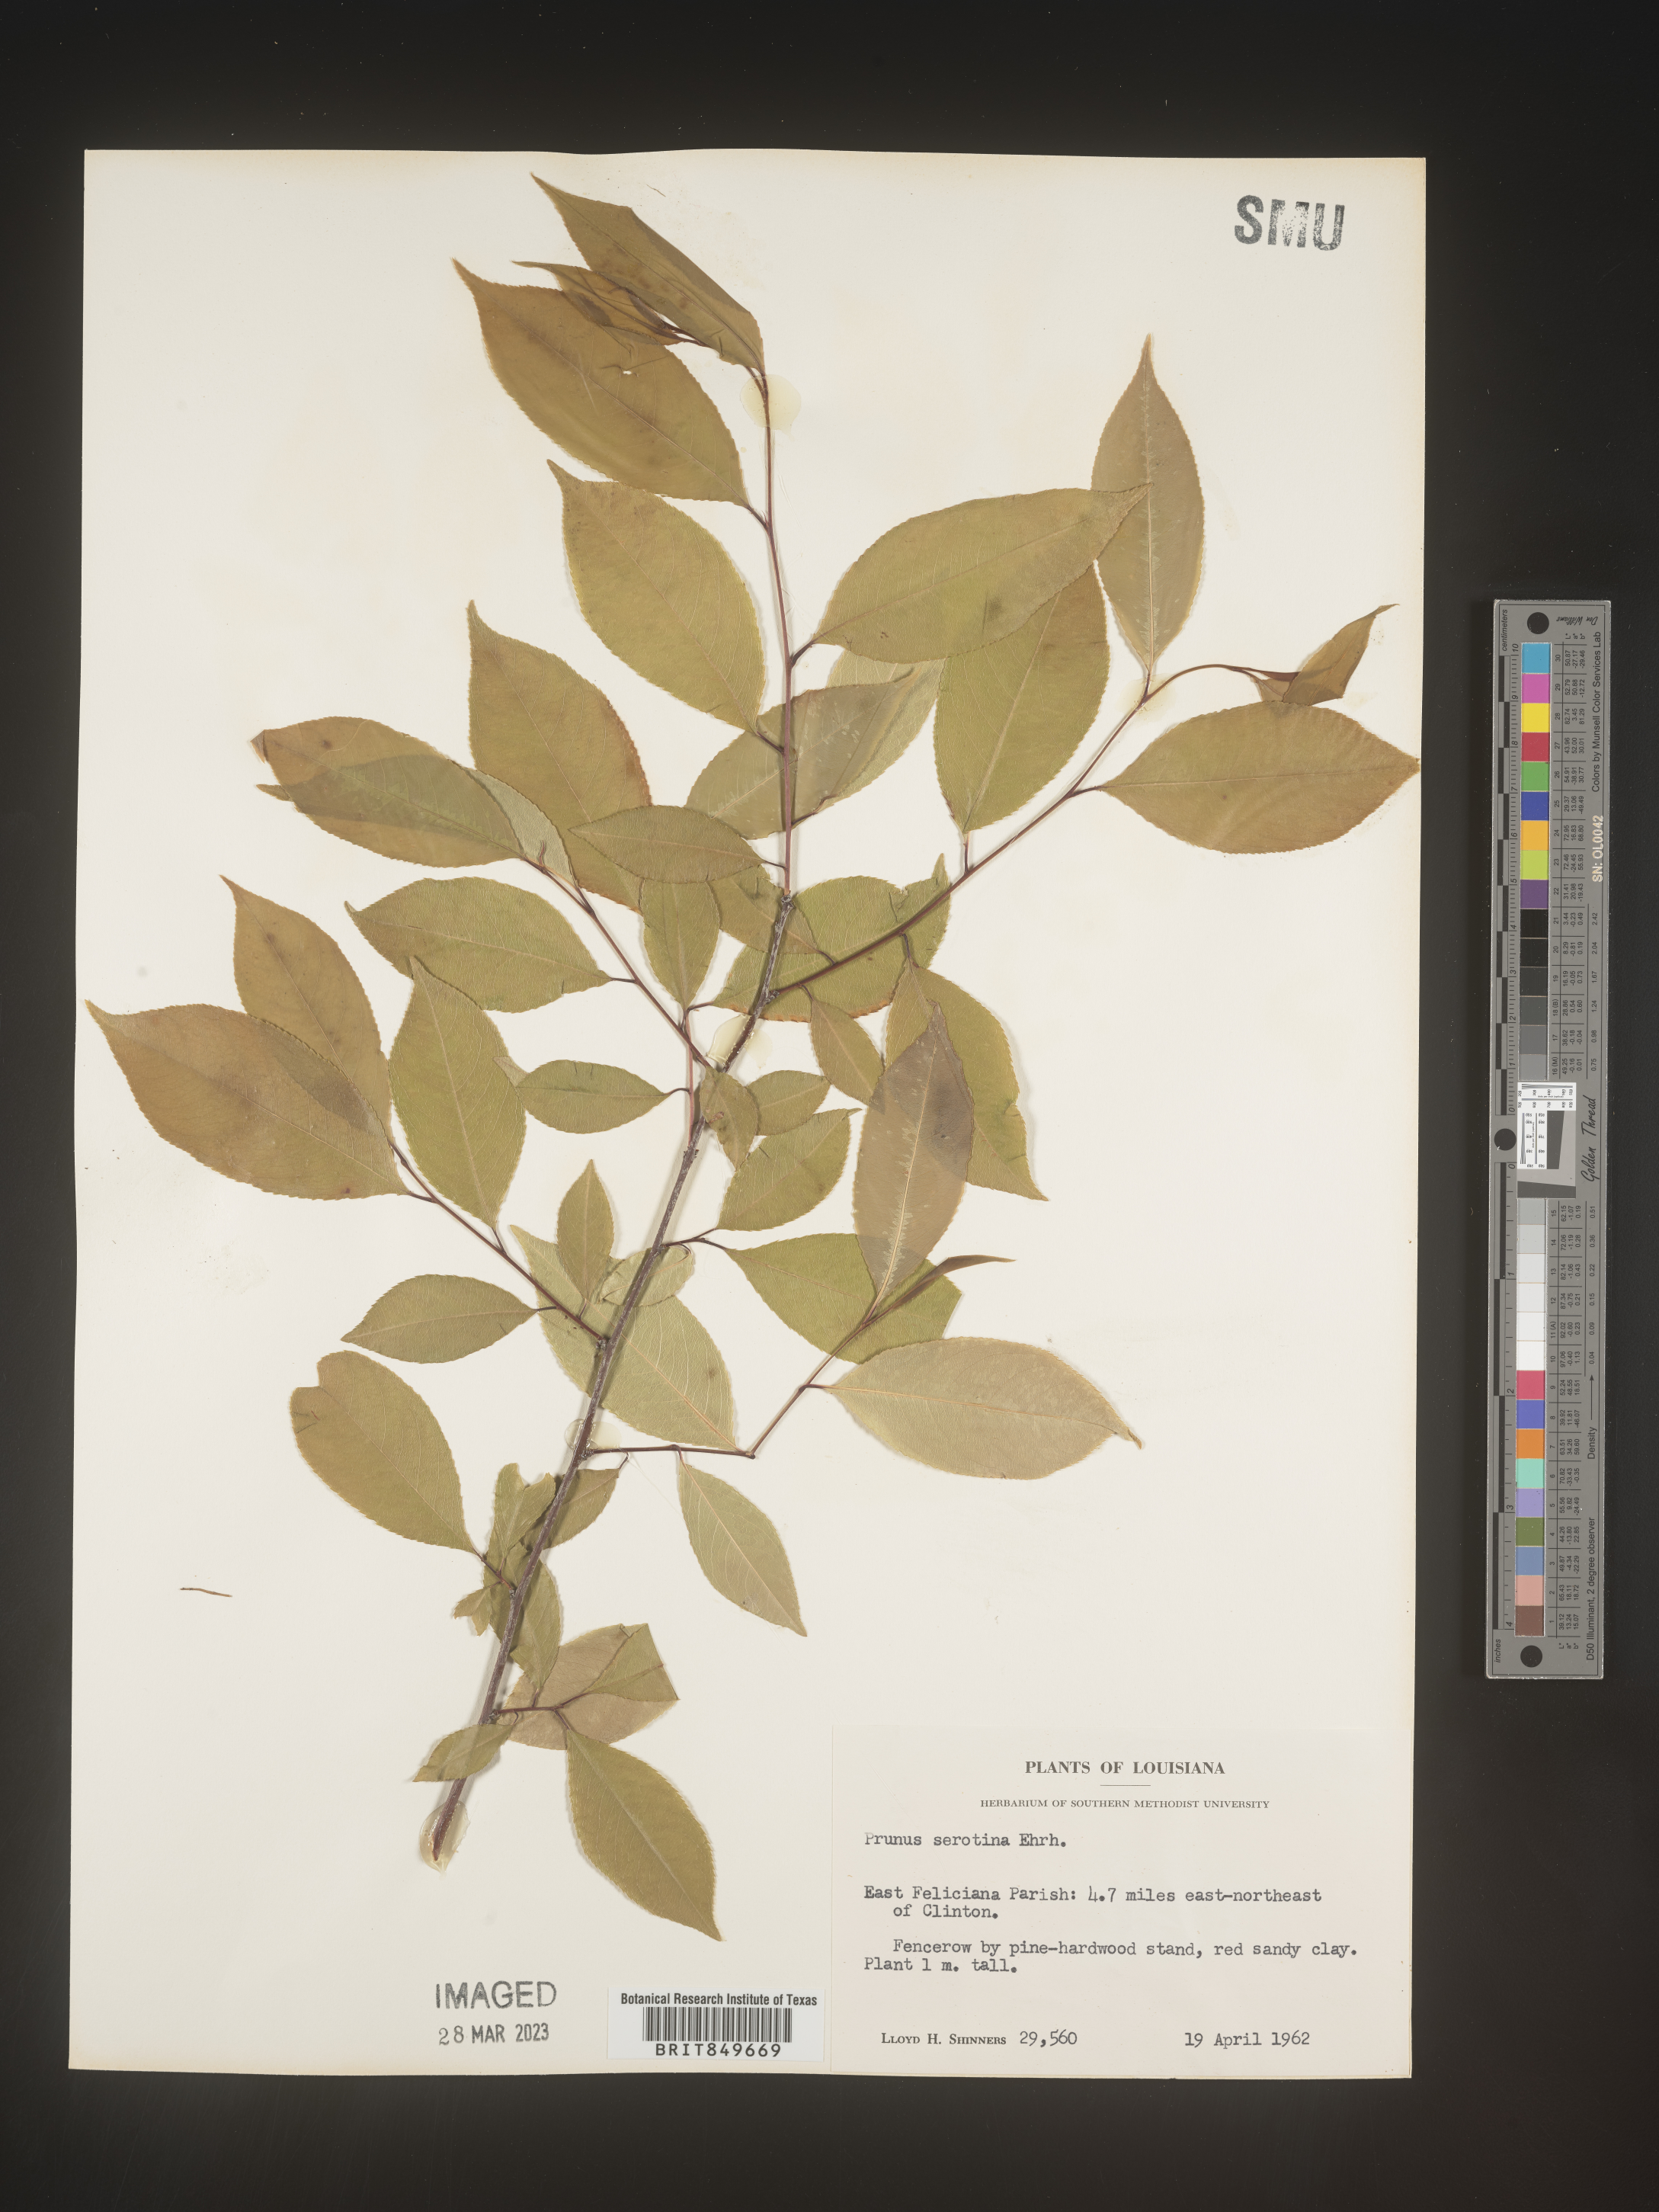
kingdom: Plantae
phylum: Tracheophyta
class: Magnoliopsida
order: Rosales
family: Rosaceae
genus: Prunus
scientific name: Prunus serotina
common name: Black cherry
